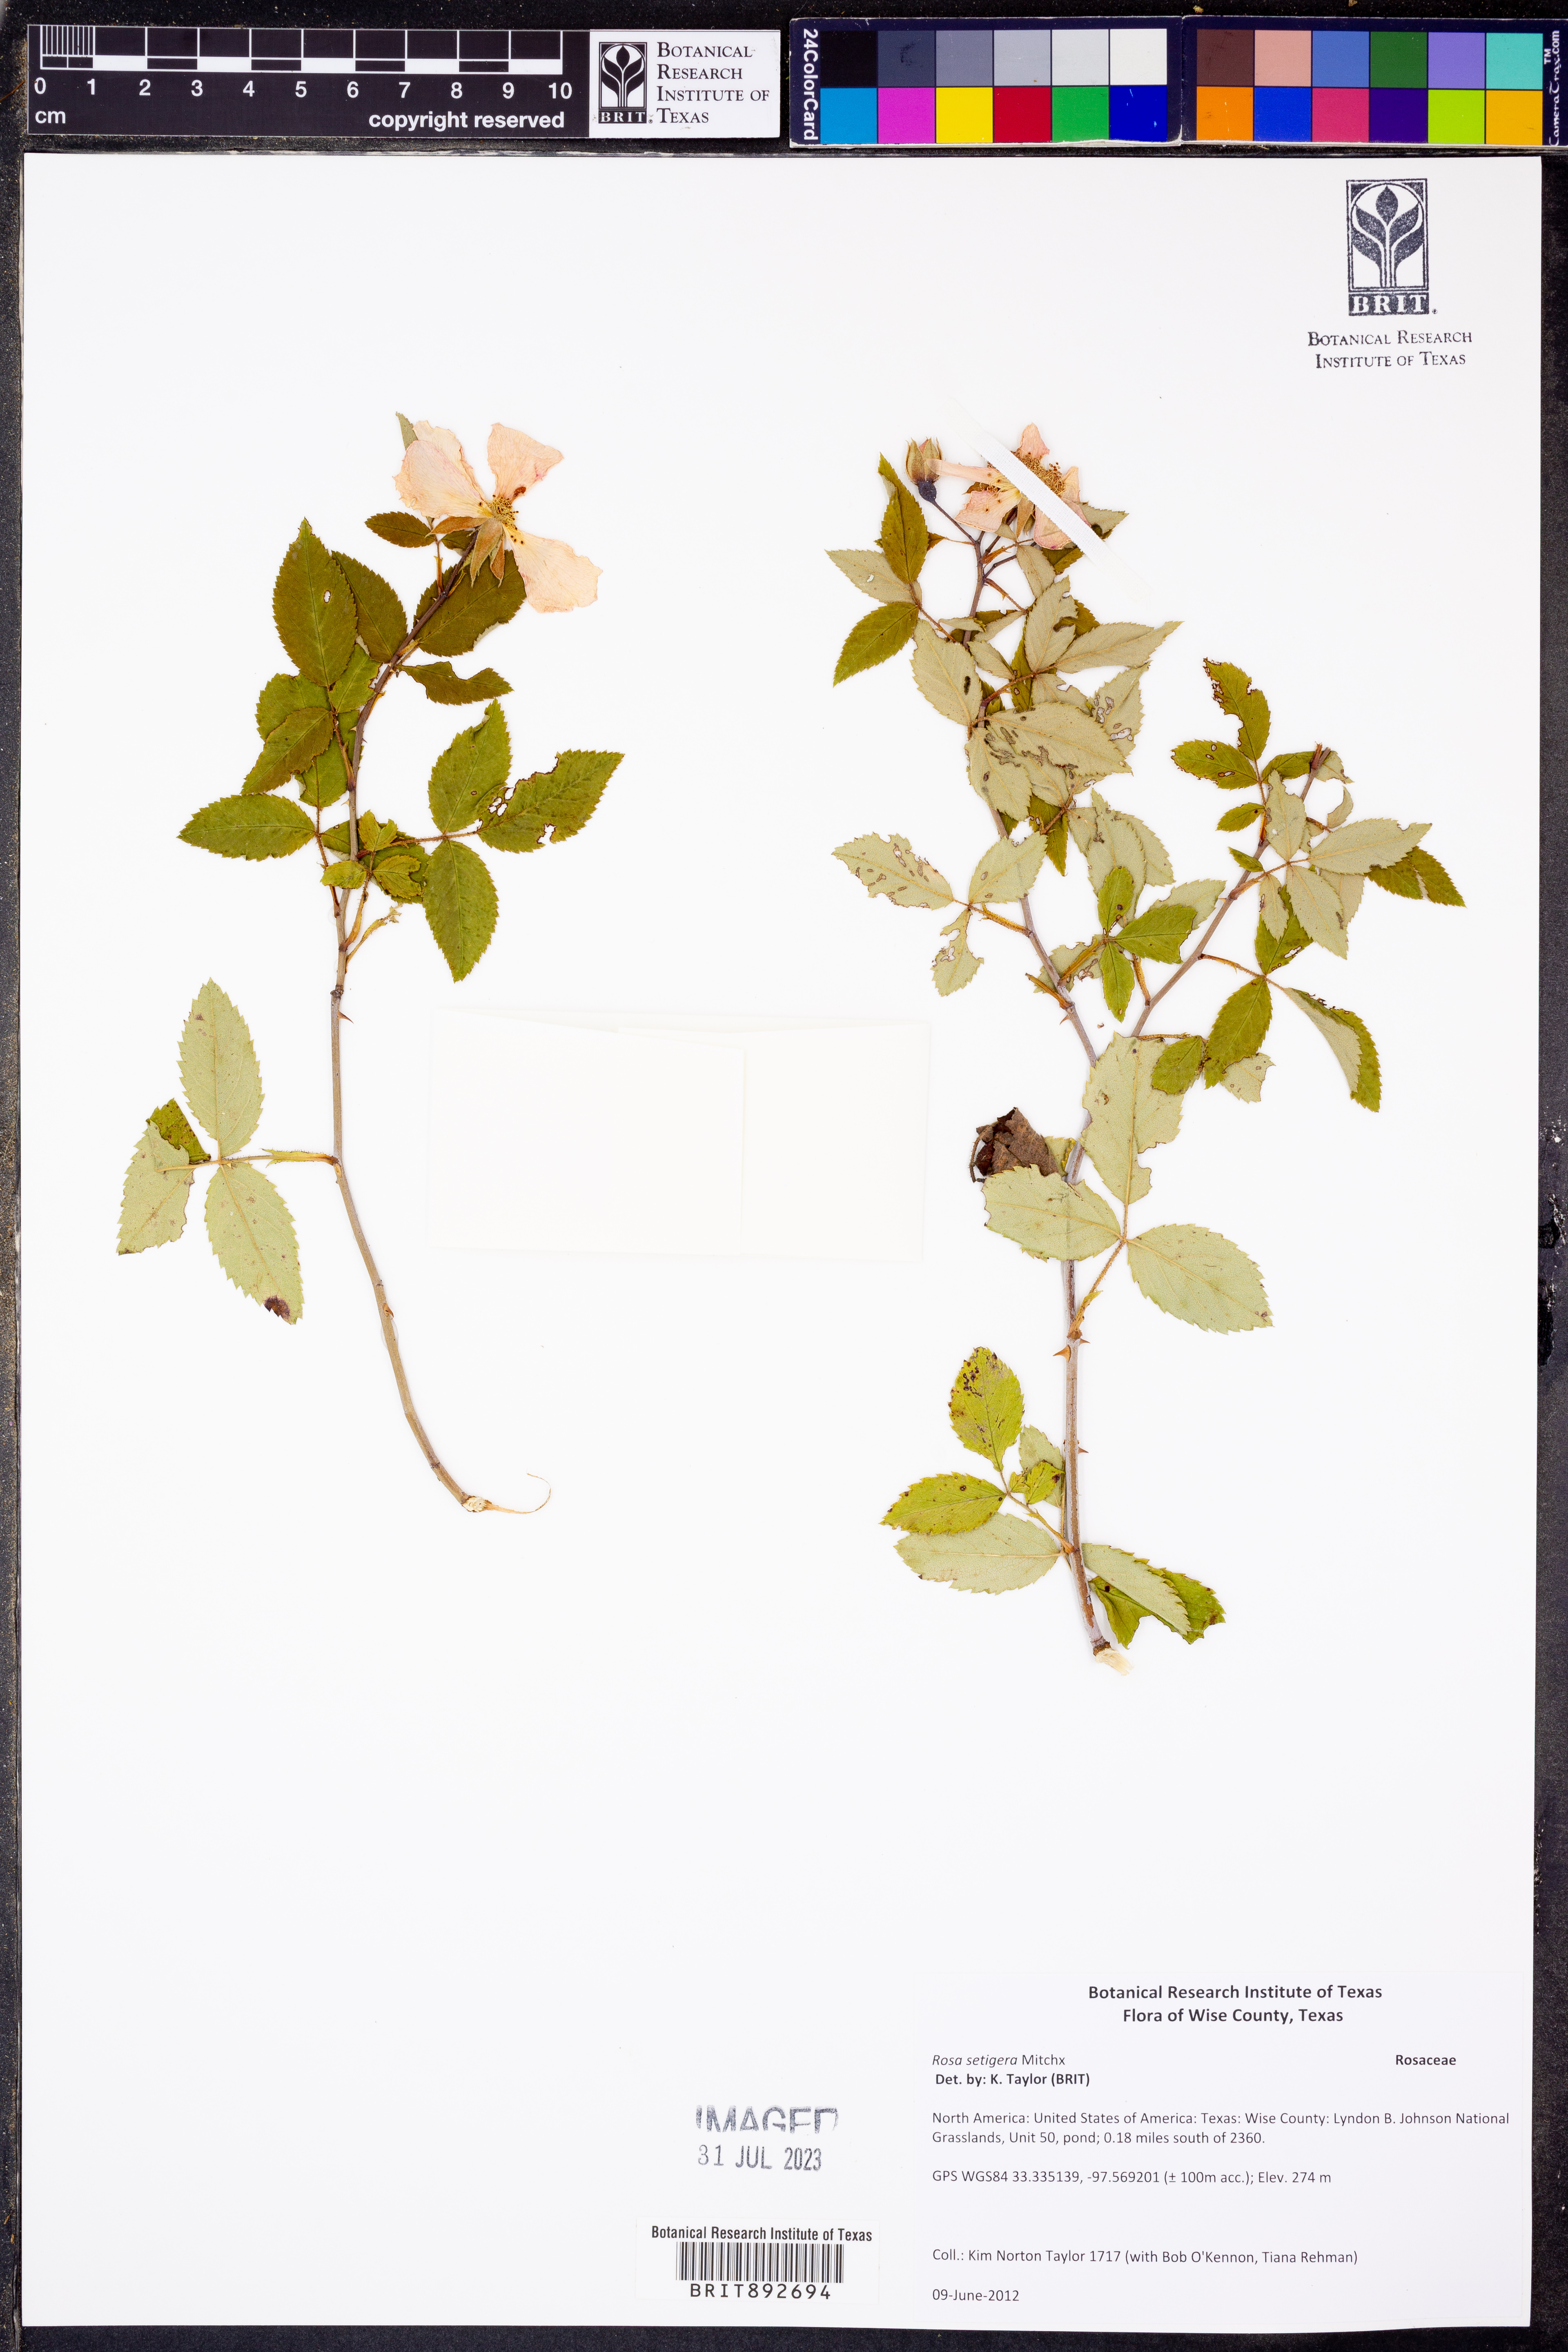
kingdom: Plantae
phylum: Tracheophyta
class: Magnoliopsida
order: Rosales
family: Rosaceae
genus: Rosa
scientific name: Rosa setigera
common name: Prairie rose
